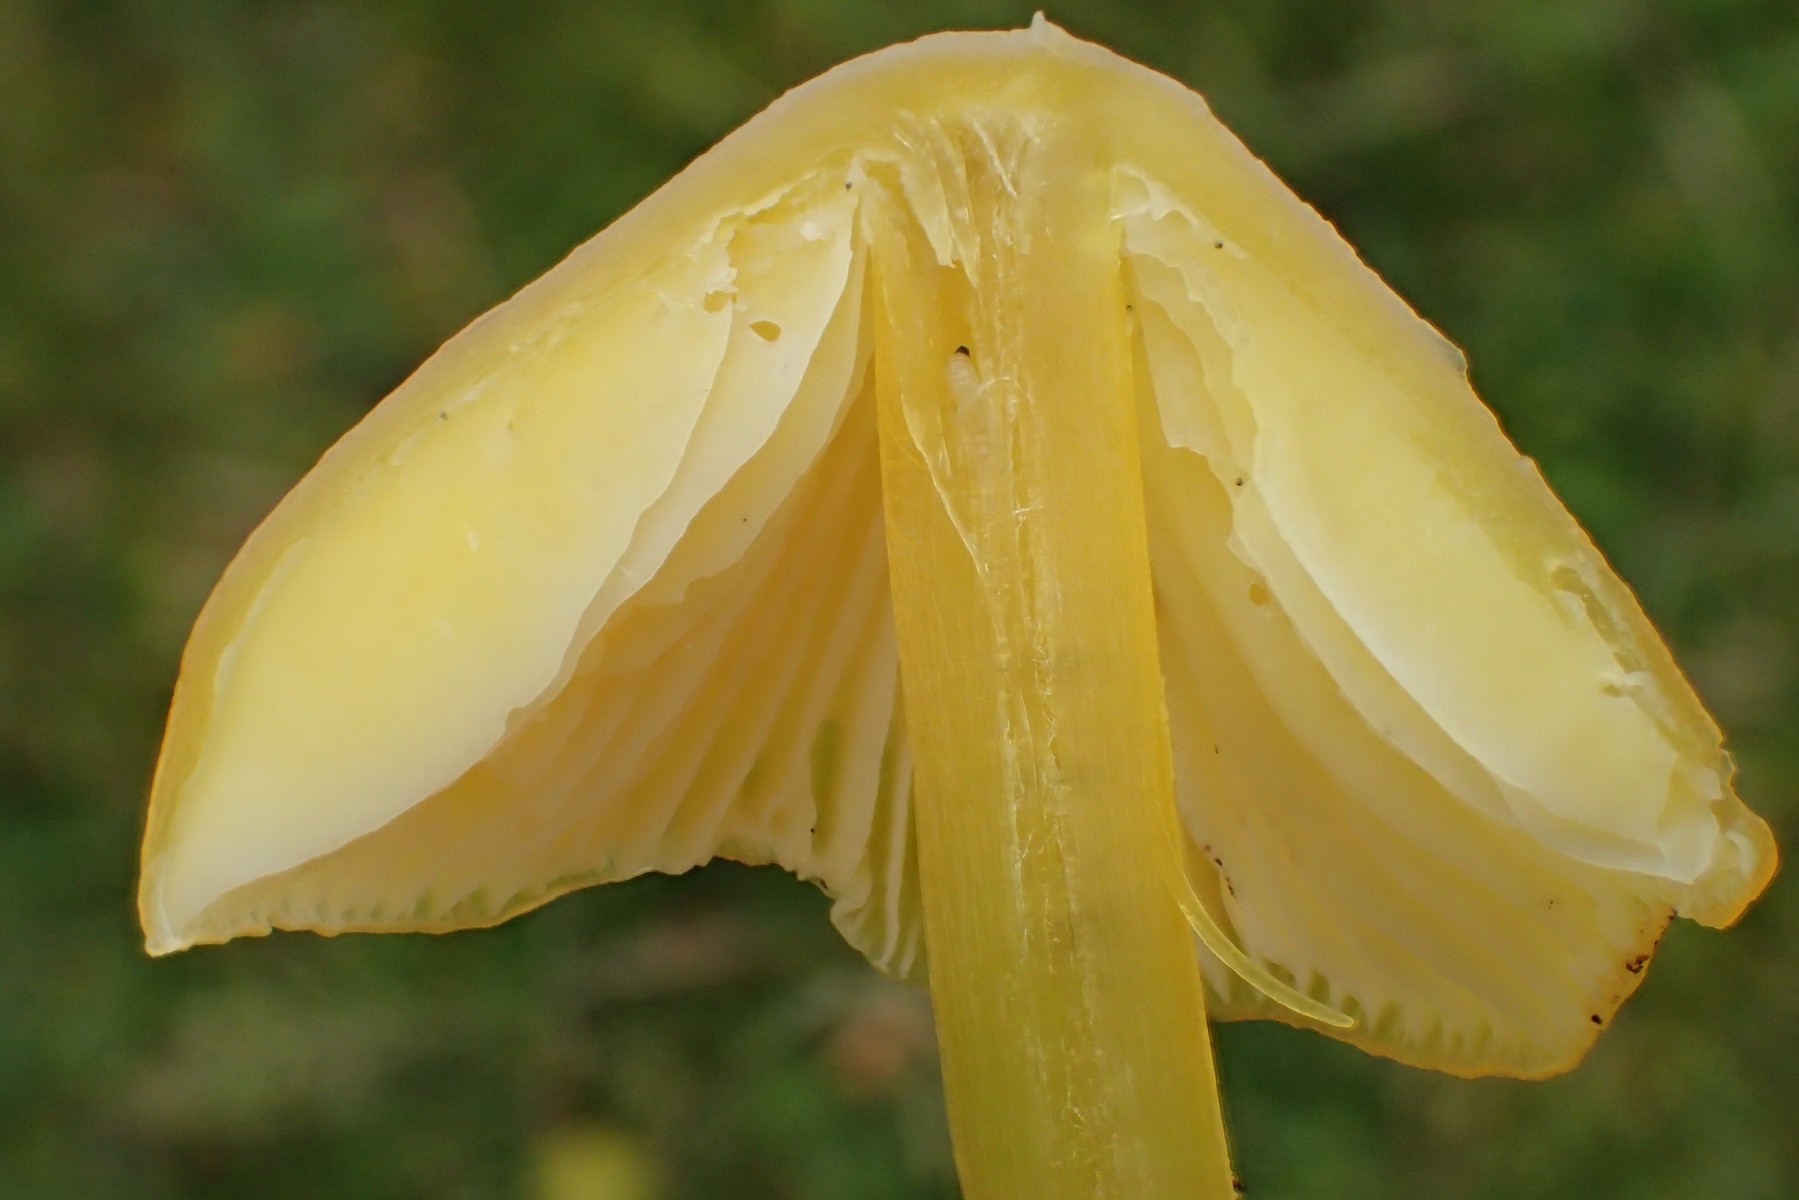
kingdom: Fungi
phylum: Basidiomycota
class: Agaricomycetes
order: Agaricales
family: Hygrophoraceae
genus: Hygrocybe
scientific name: Hygrocybe chlorophana
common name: gul vokshat
